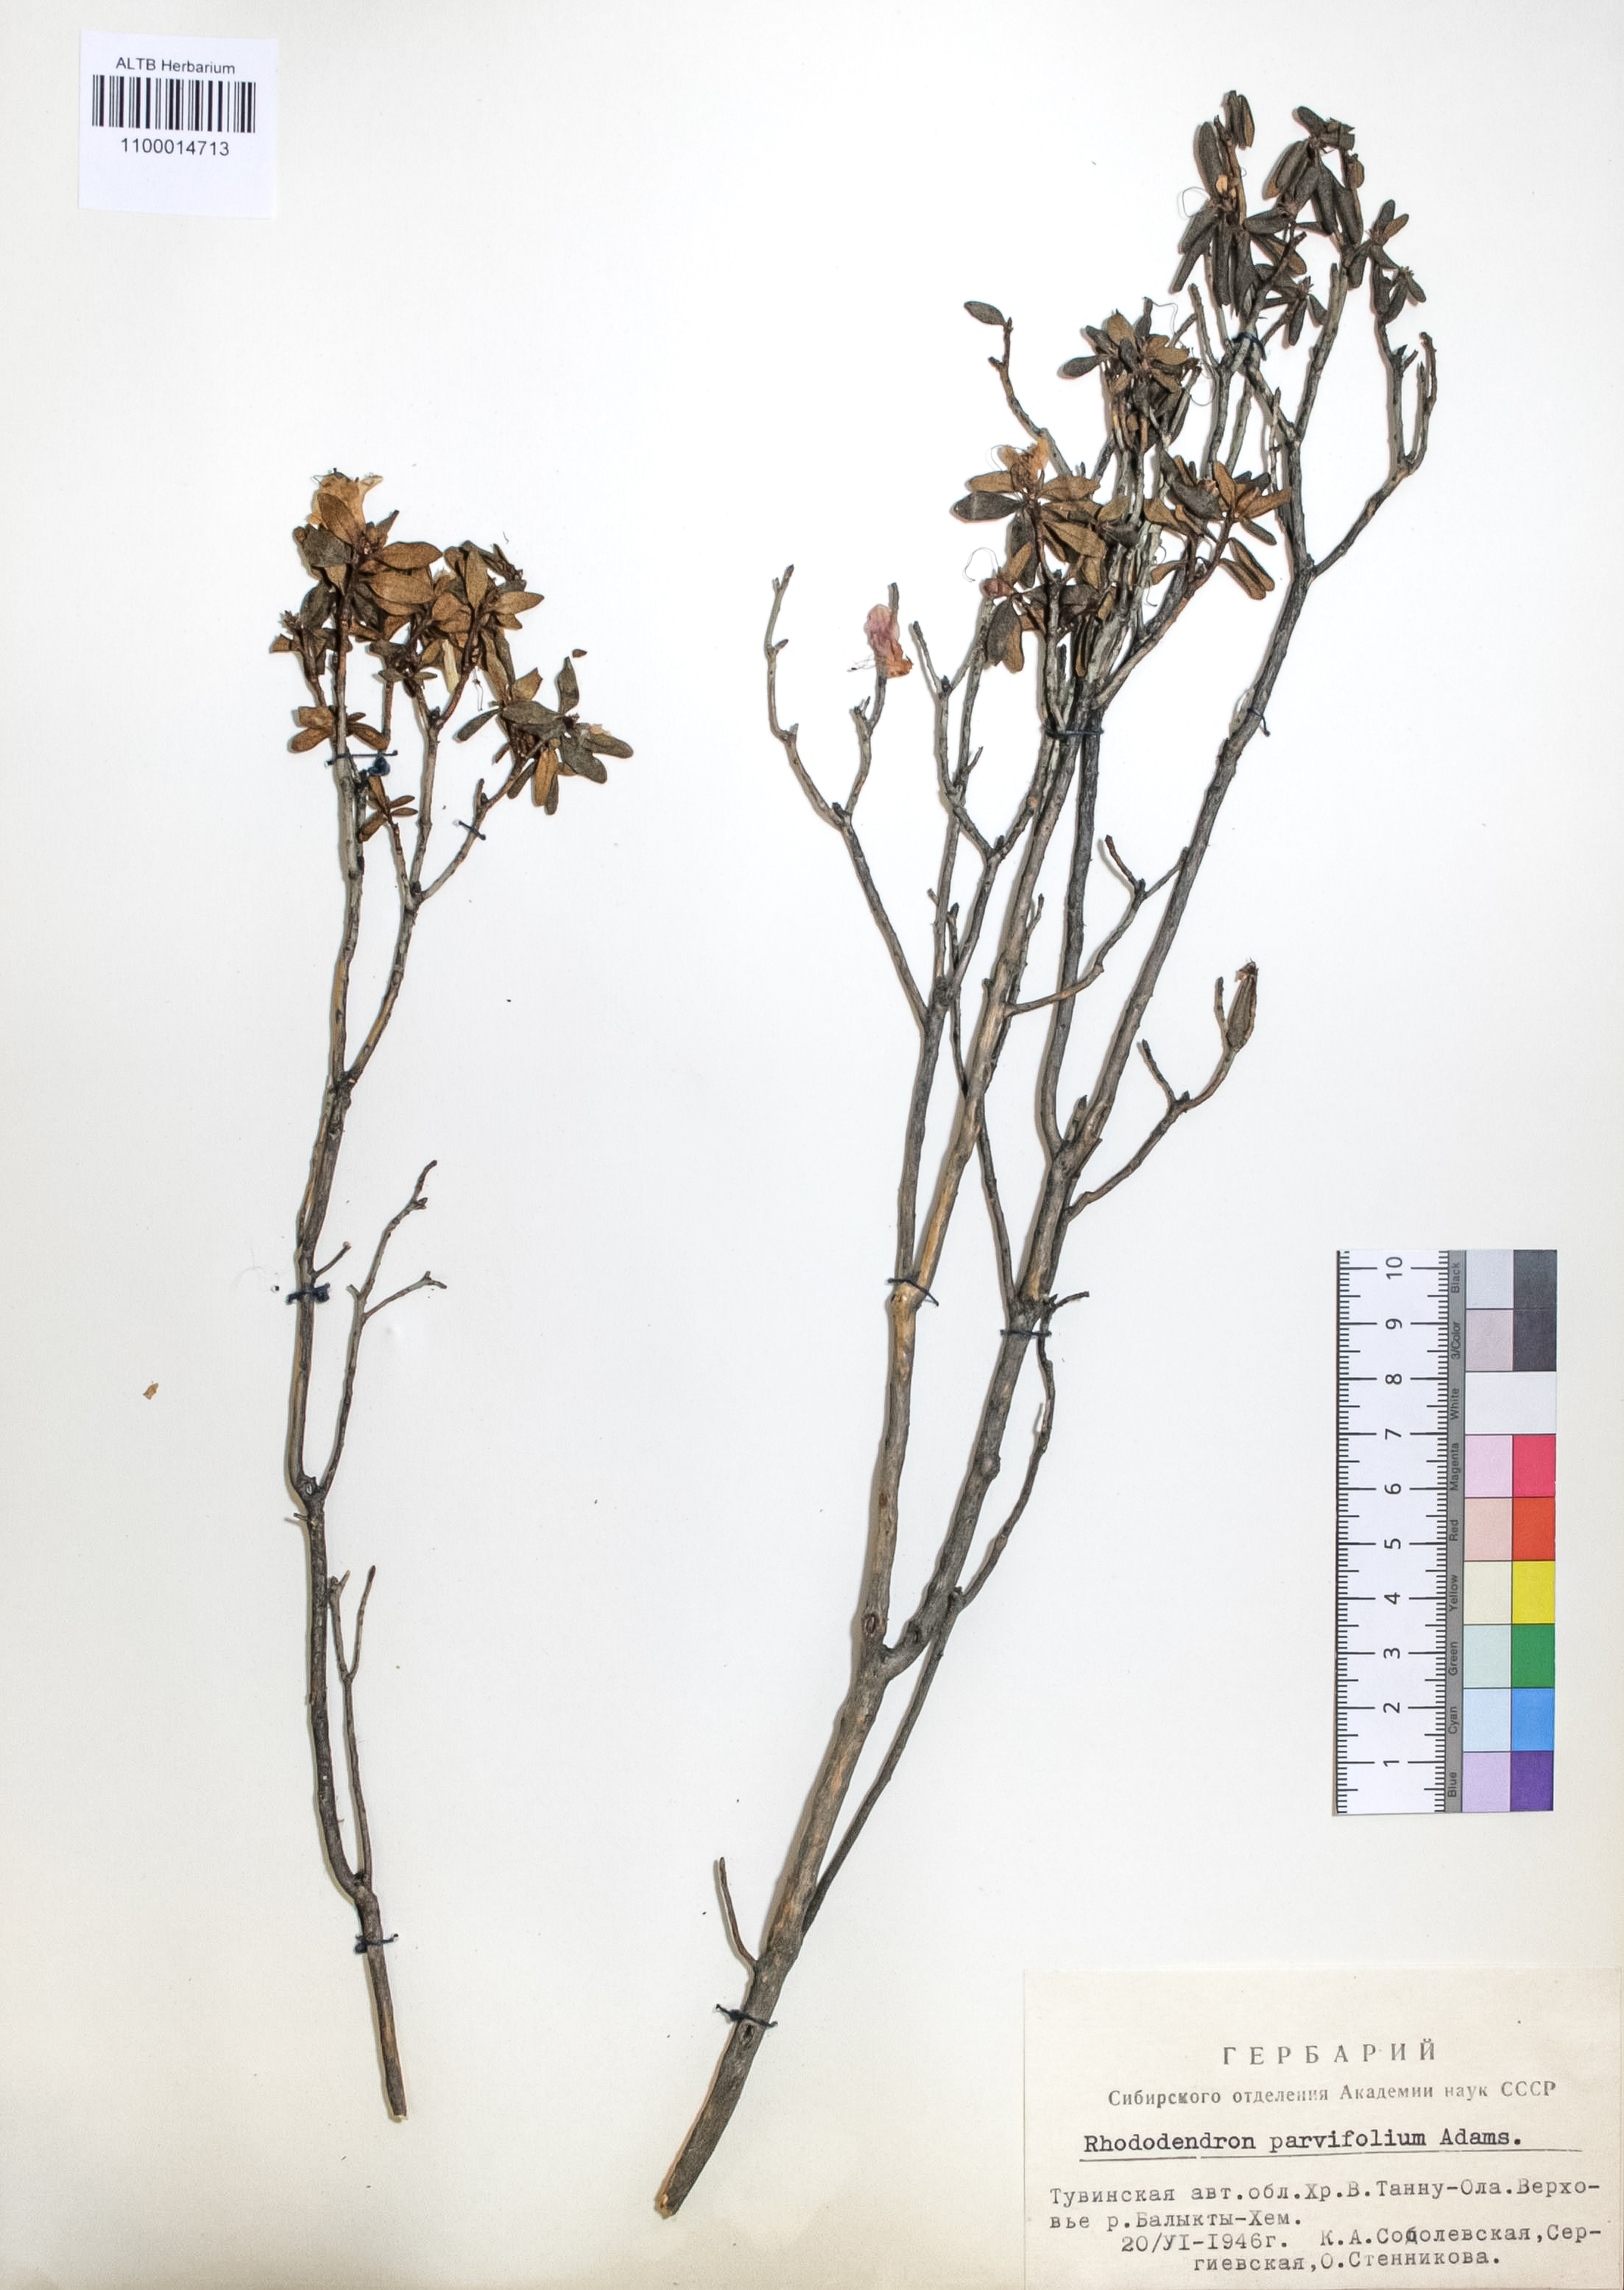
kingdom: Plantae
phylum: Tracheophyta
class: Magnoliopsida
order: Ericales
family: Ericaceae
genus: Rhododendron
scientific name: Rhododendron parvifolium
